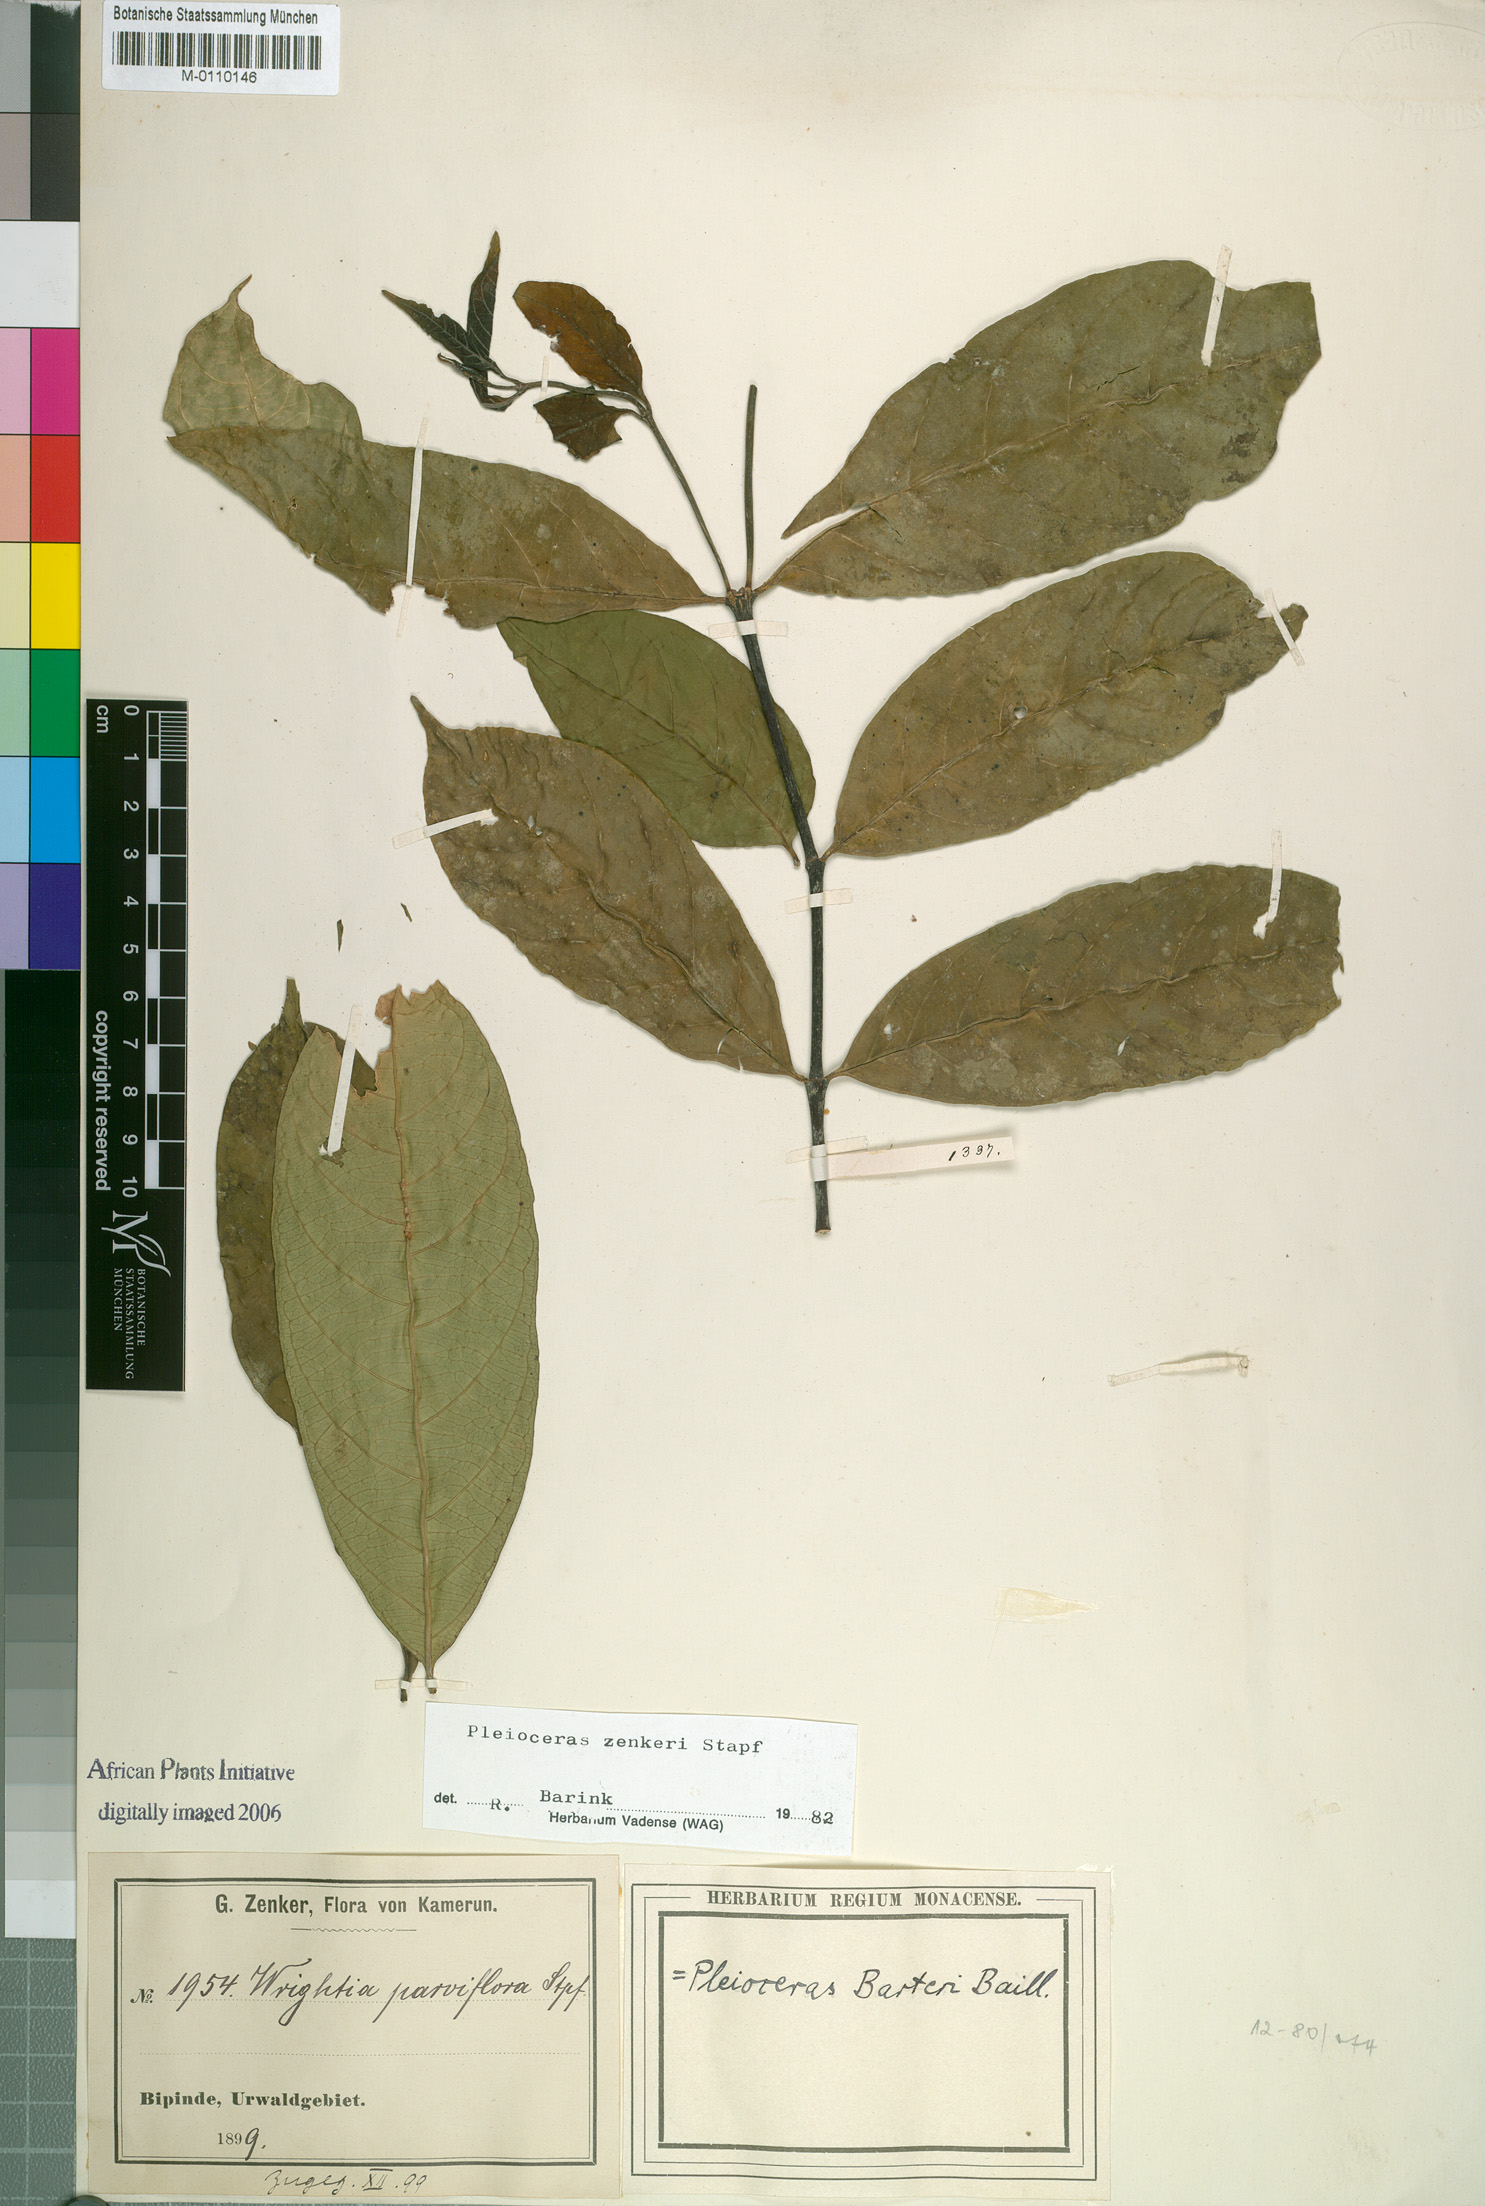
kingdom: Plantae
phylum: Tracheophyta
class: Magnoliopsida
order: Gentianales
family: Apocynaceae
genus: Pleioceras
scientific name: Pleioceras zenkeri
